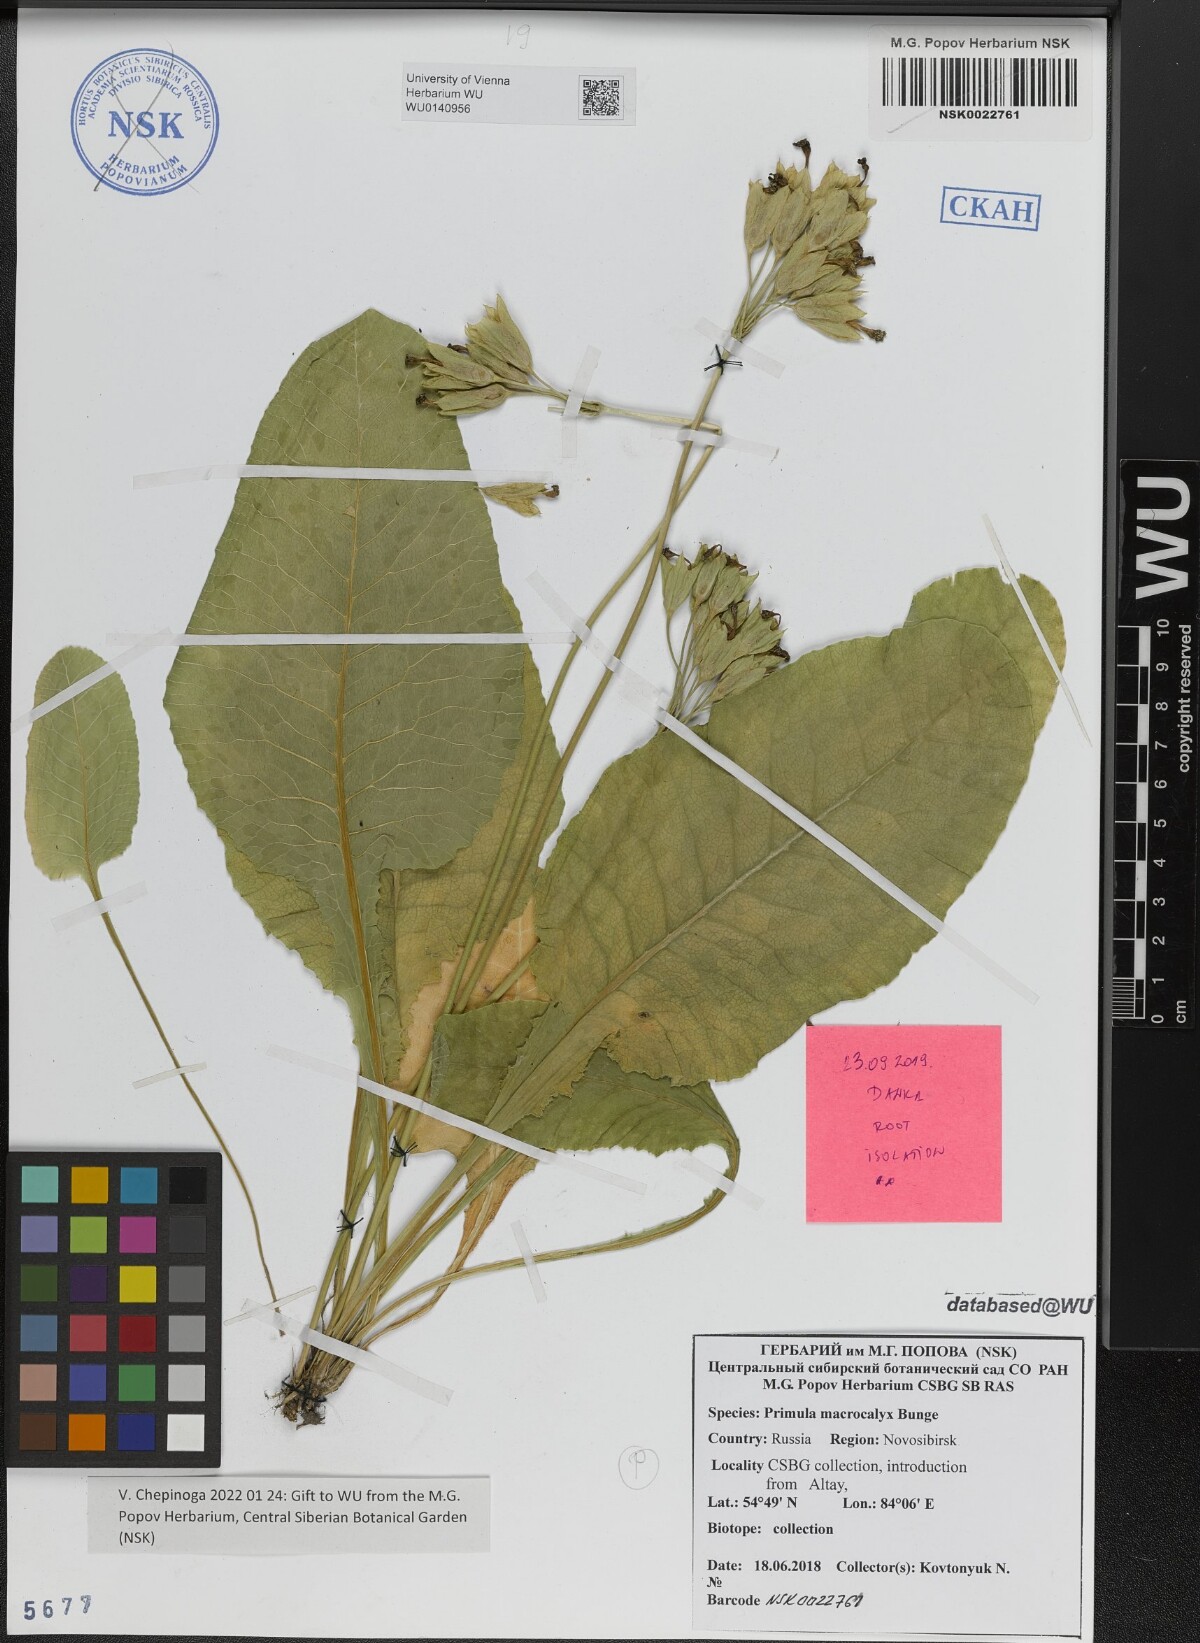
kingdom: Plantae
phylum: Tracheophyta
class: Magnoliopsida
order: Ericales
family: Primulaceae
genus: Primula
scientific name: Primula veris
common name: Cowslip
